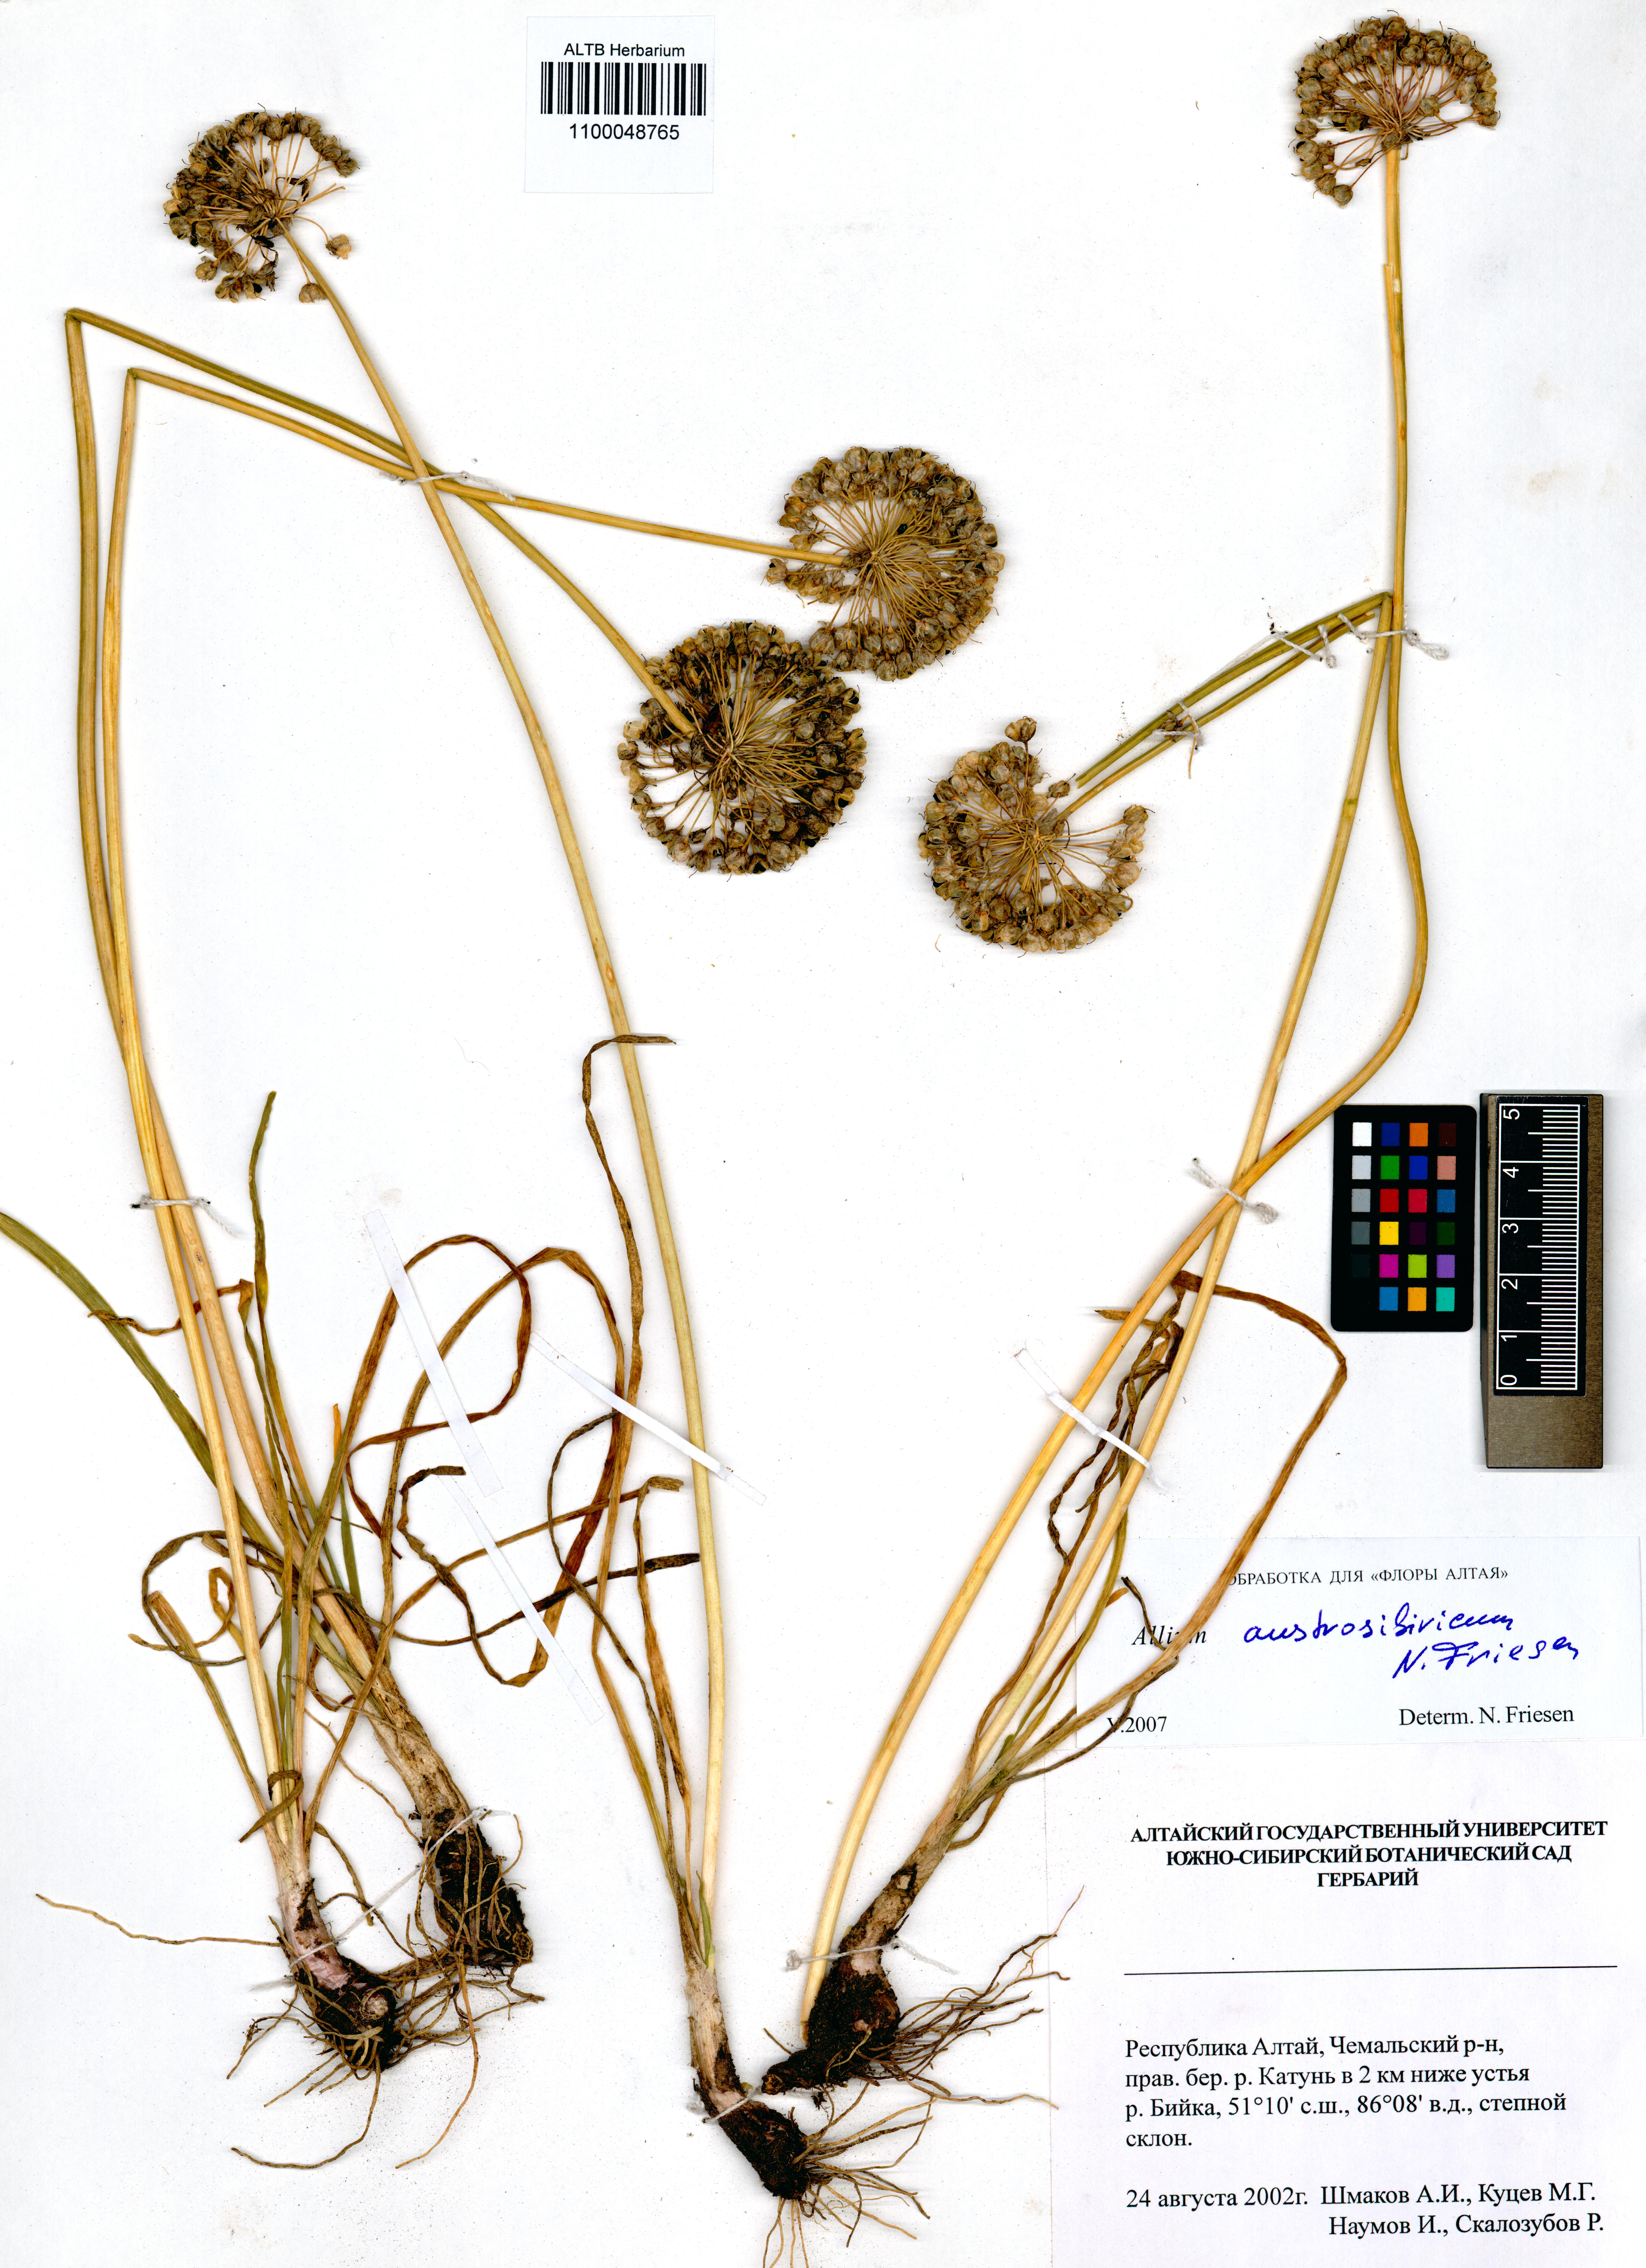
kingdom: Plantae
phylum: Tracheophyta
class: Liliopsida
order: Asparagales
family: Amaryllidaceae
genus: Allium
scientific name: Allium austrosibiricum
